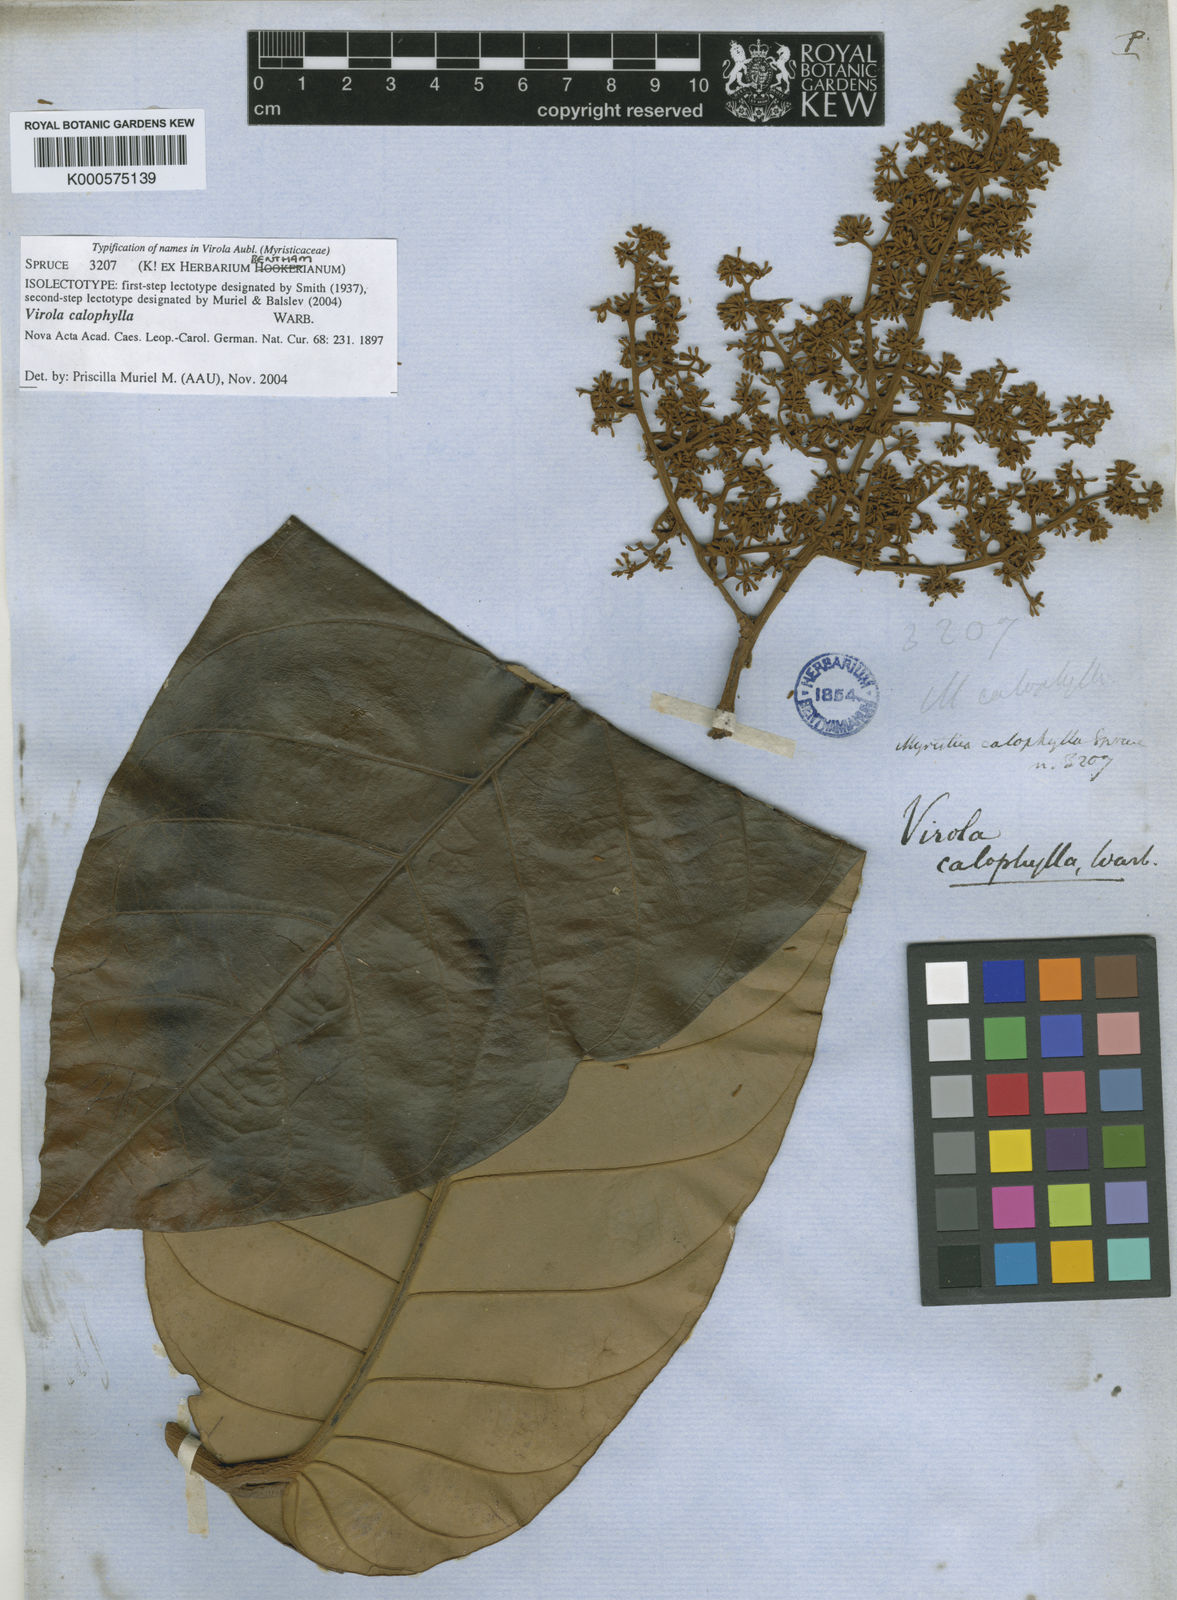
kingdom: Plantae
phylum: Tracheophyta
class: Magnoliopsida
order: Magnoliales
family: Myristicaceae
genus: Virola
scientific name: Virola calophylla
